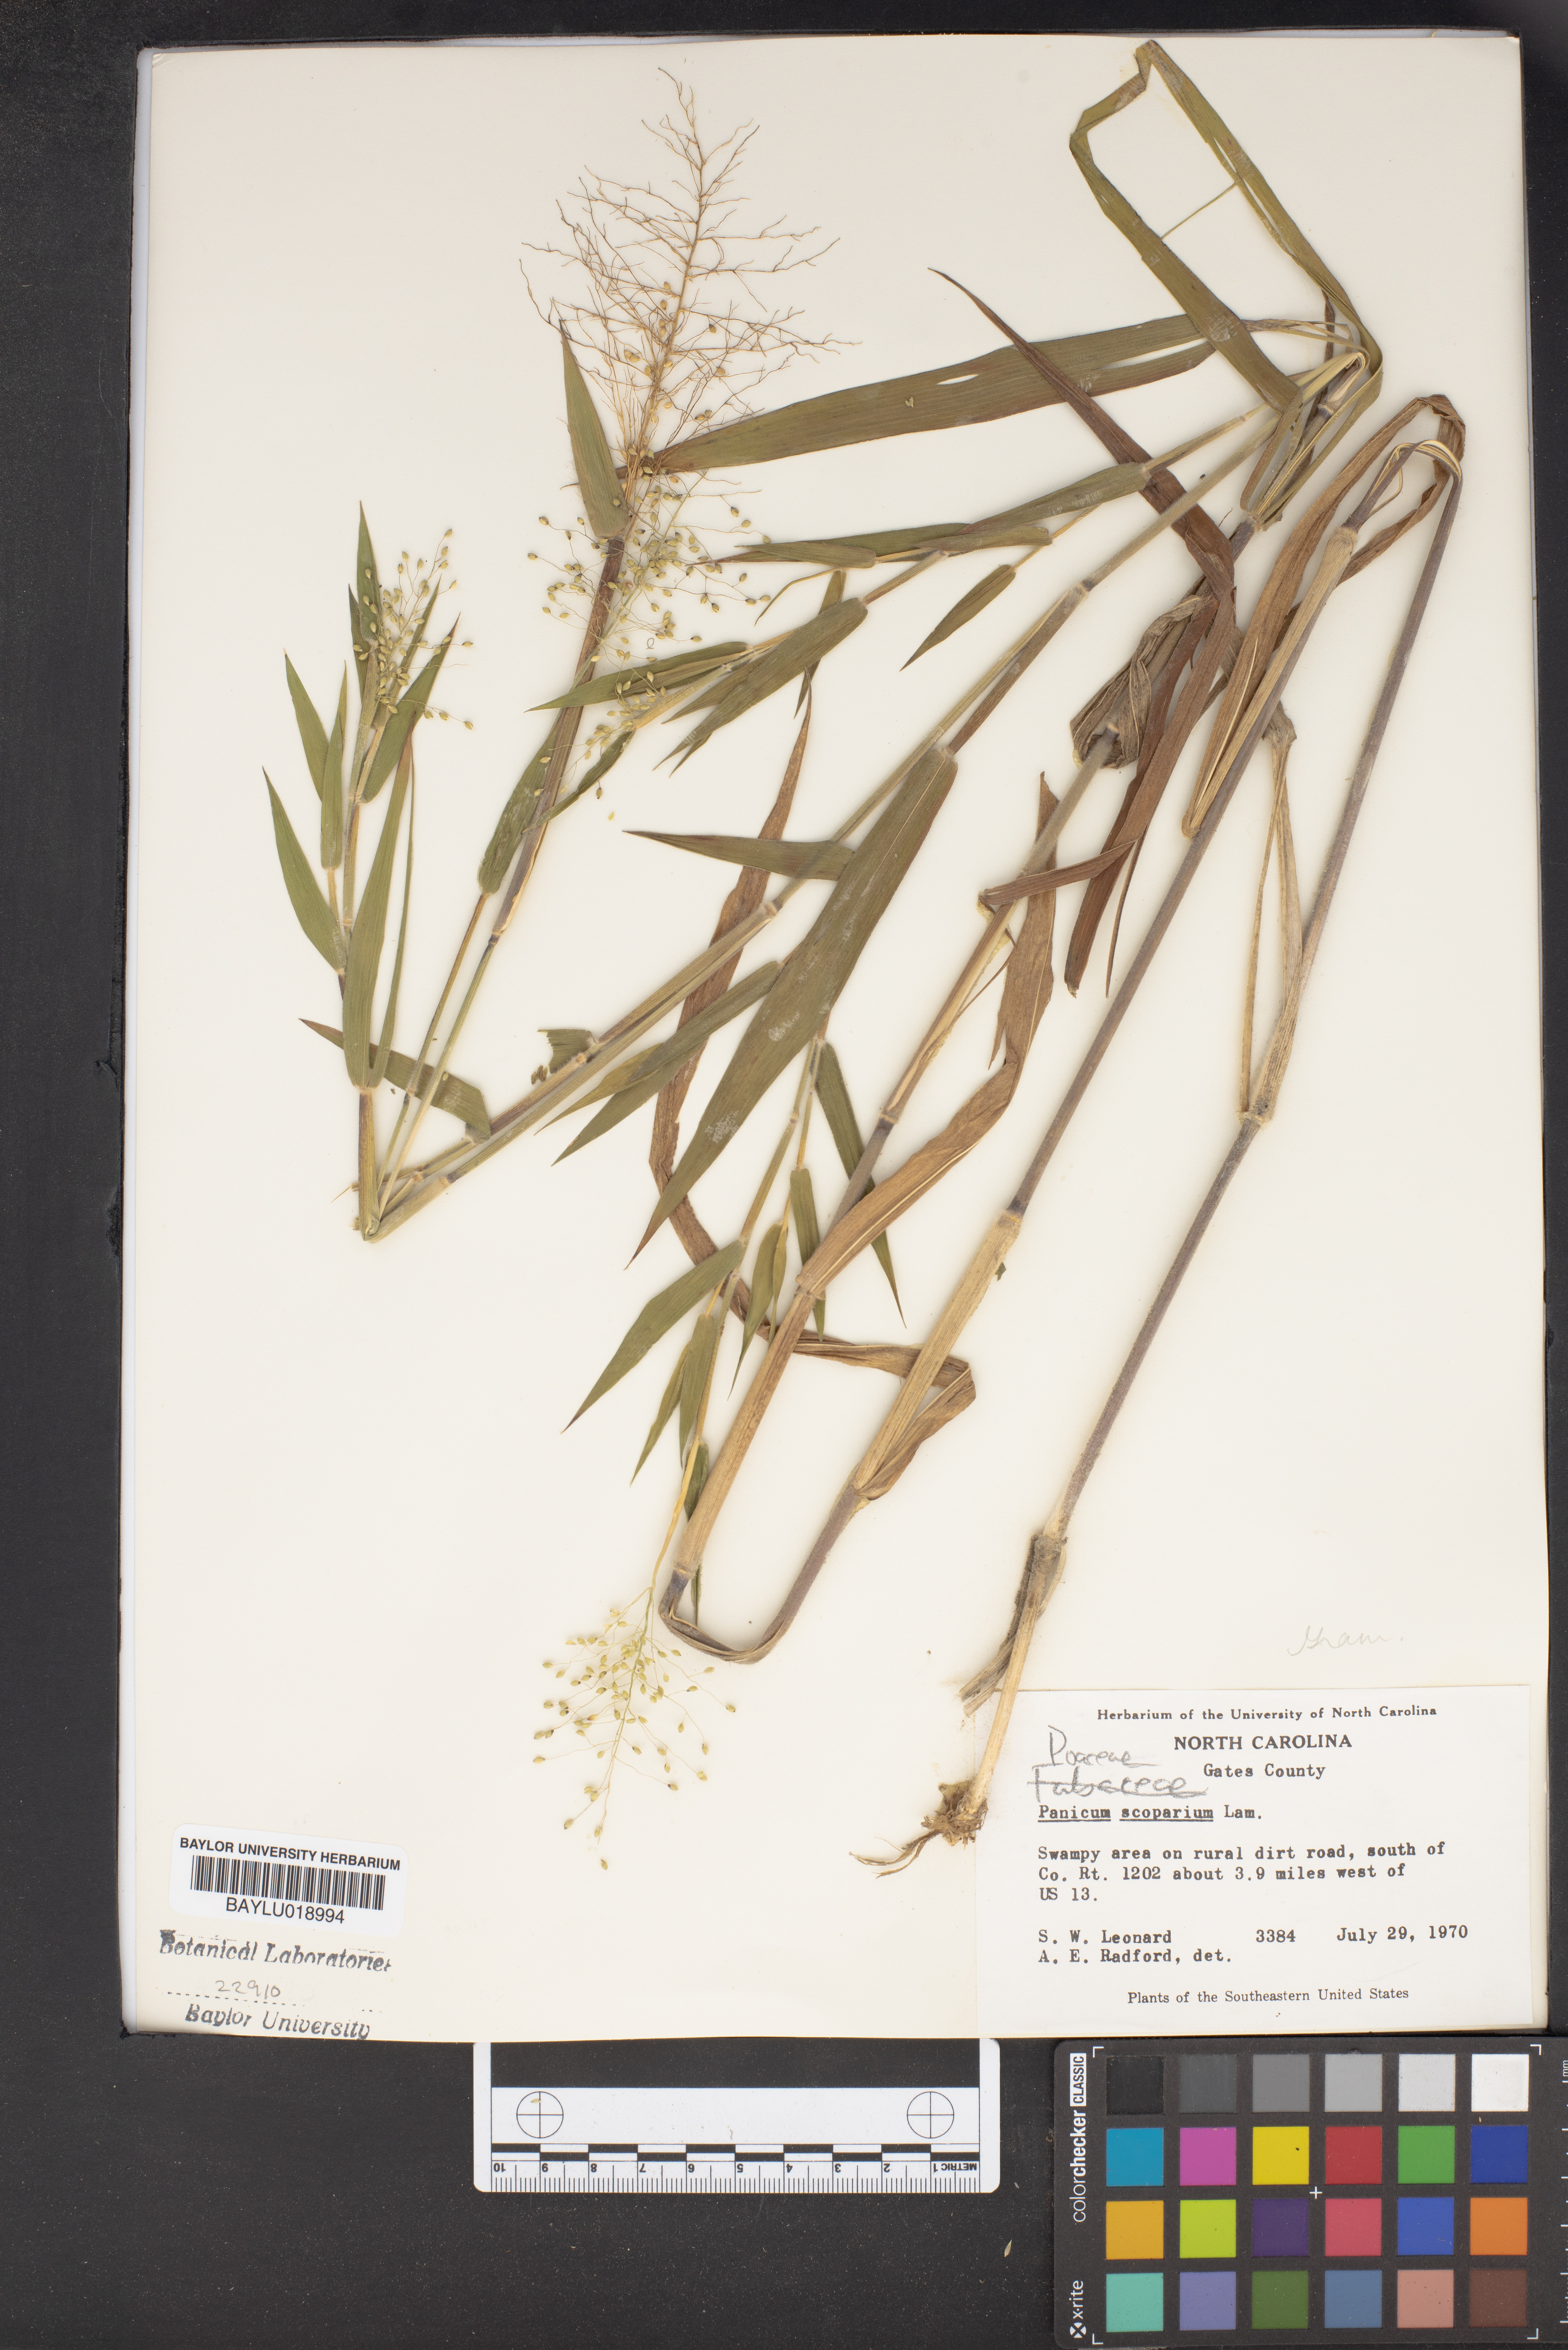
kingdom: Plantae
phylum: Tracheophyta
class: Liliopsida
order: Poales
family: Poaceae
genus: Dichanthelium
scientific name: Dichanthelium scribnerianum
